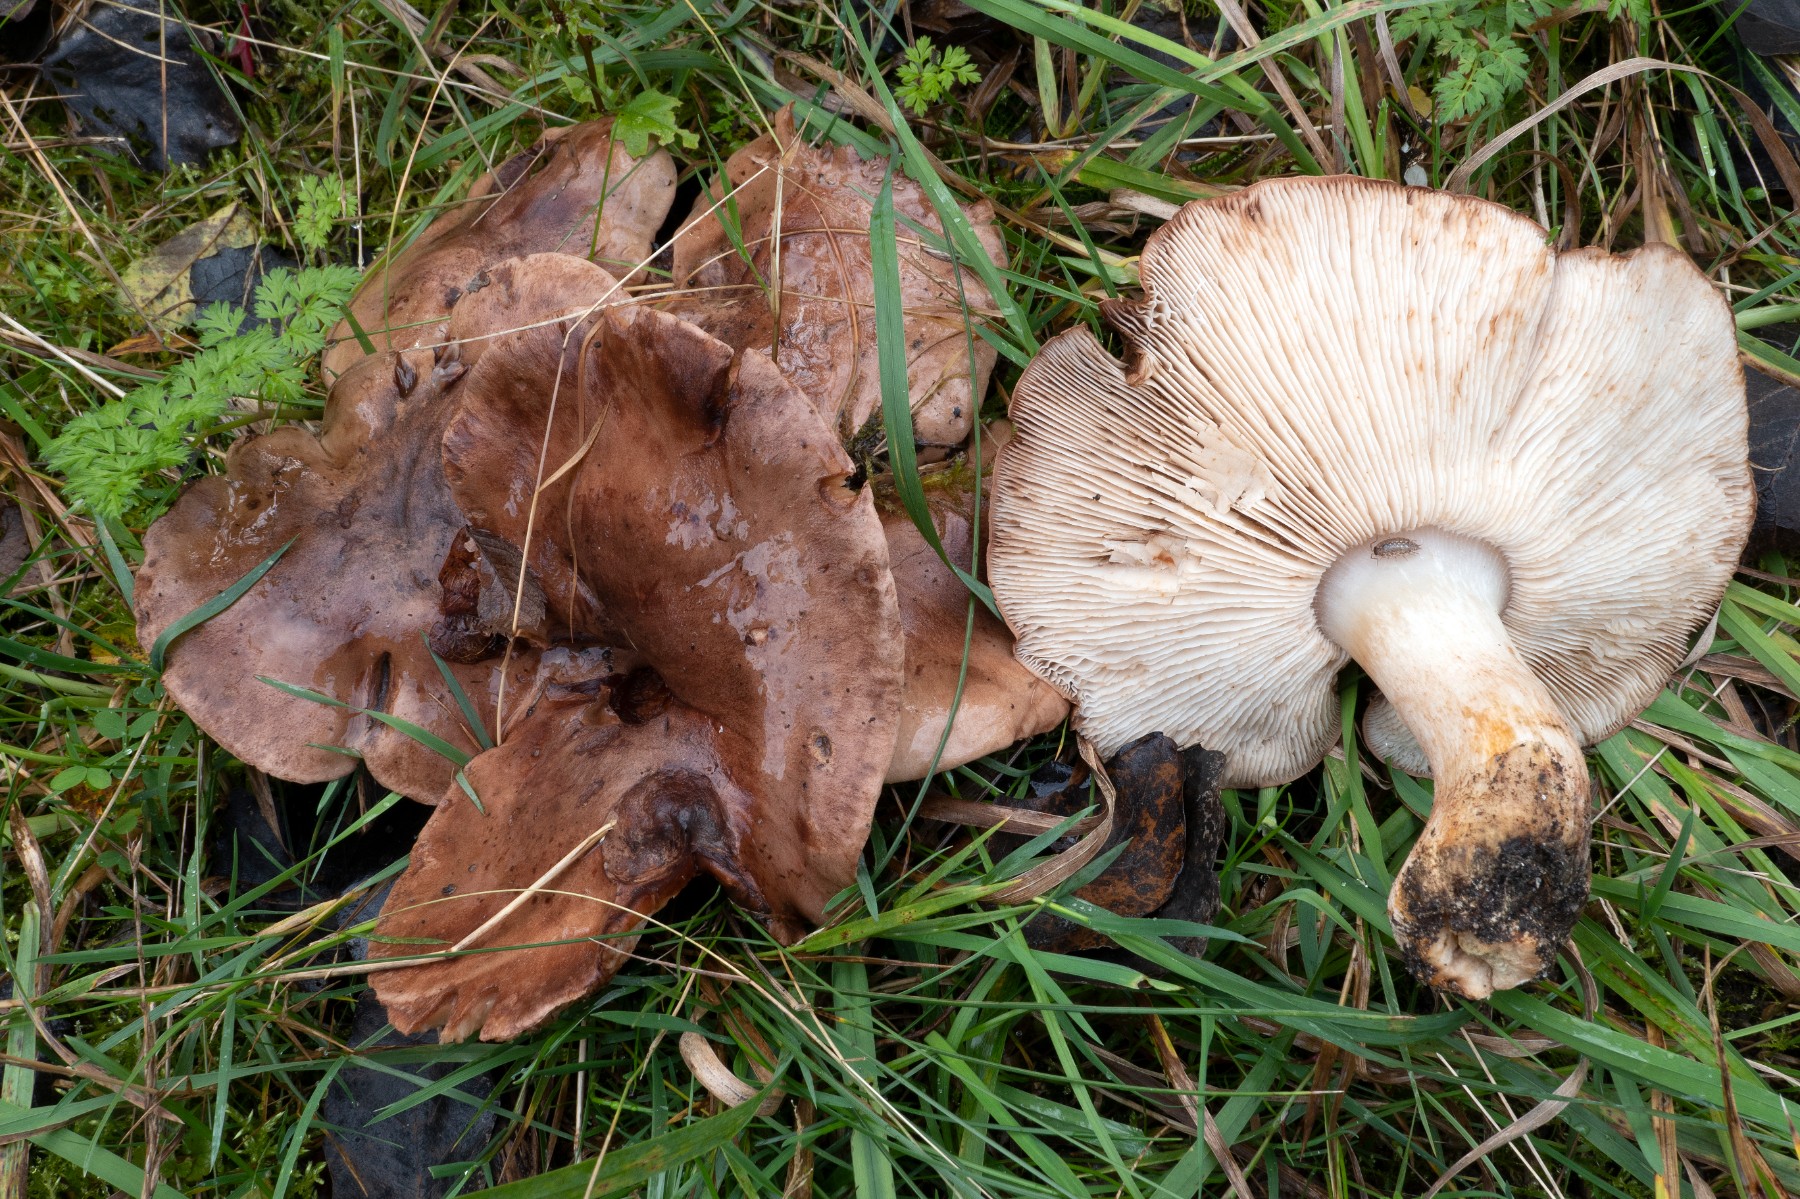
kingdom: Fungi
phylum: Basidiomycota
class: Agaricomycetes
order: Agaricales
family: Tricholomataceae
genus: Tricholoma
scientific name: Tricholoma populinum
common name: poppel-ridderhat
